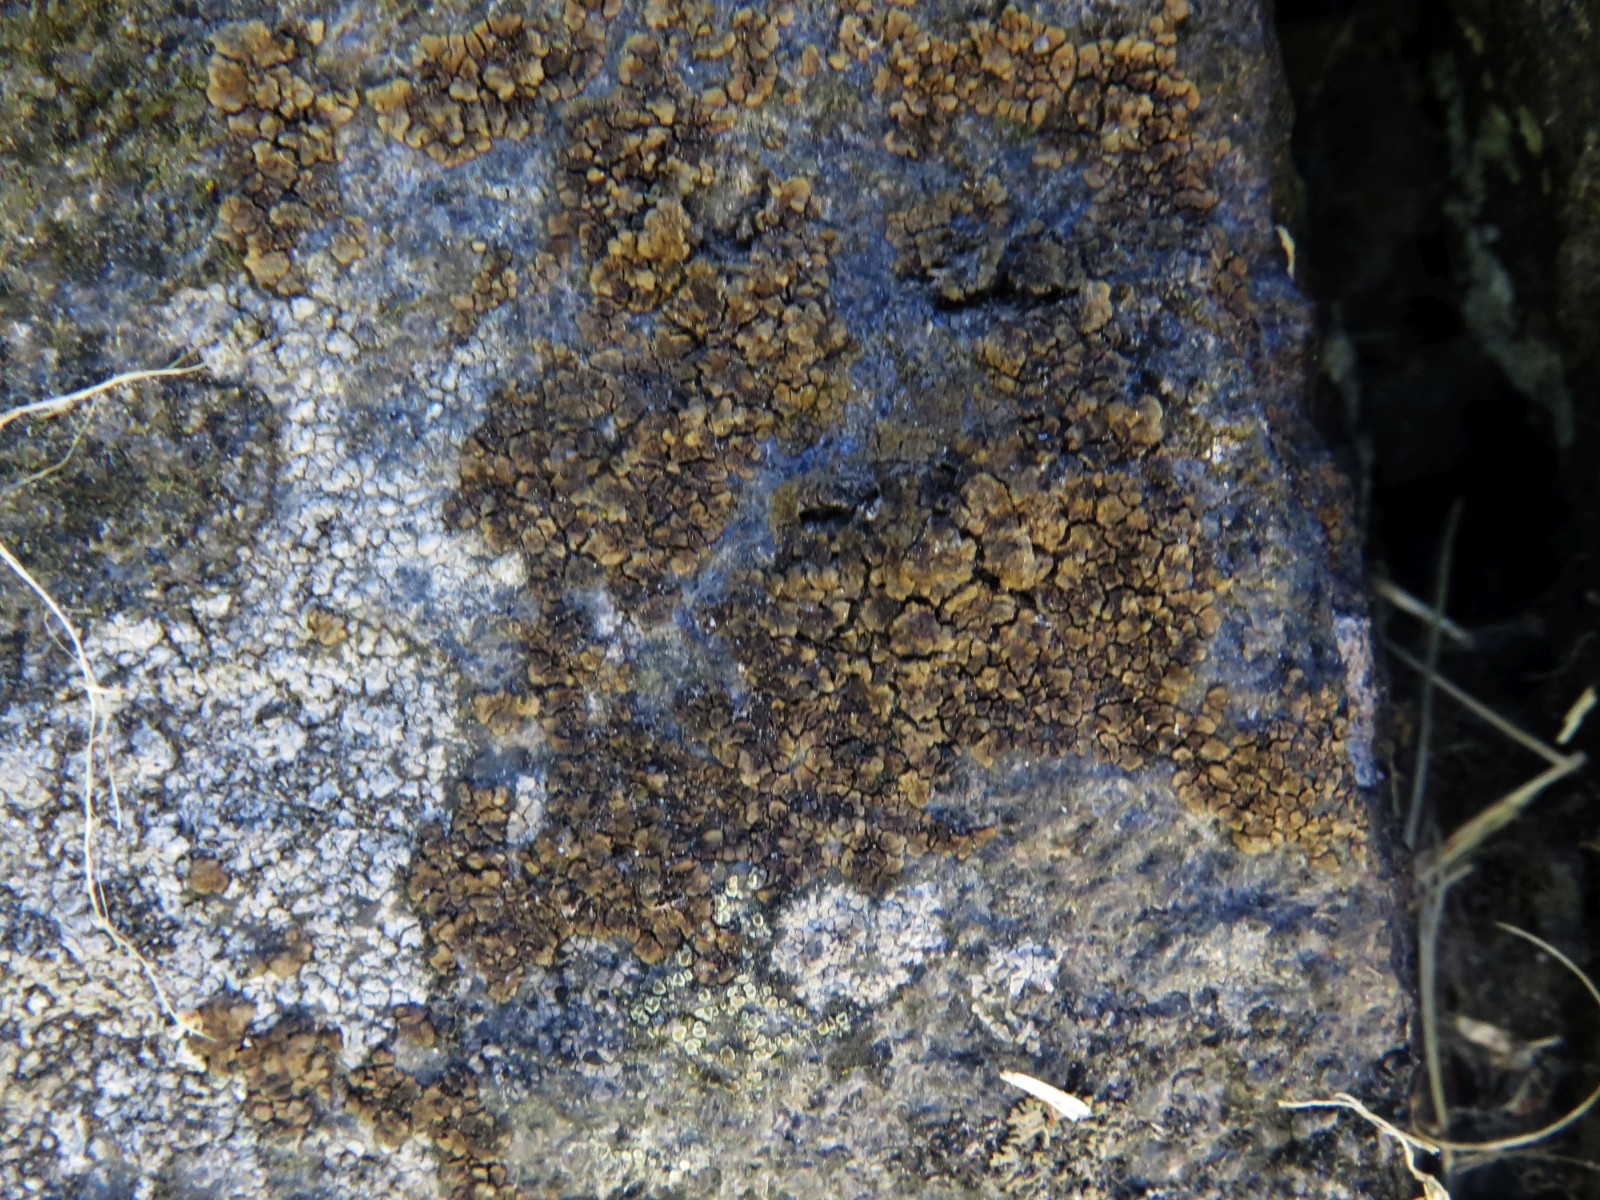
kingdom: Fungi
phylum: Ascomycota
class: Lecanoromycetes
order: Acarosporales
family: Acarosporaceae
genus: Acarospora
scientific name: Acarospora fuscata
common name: brun småsporelav
